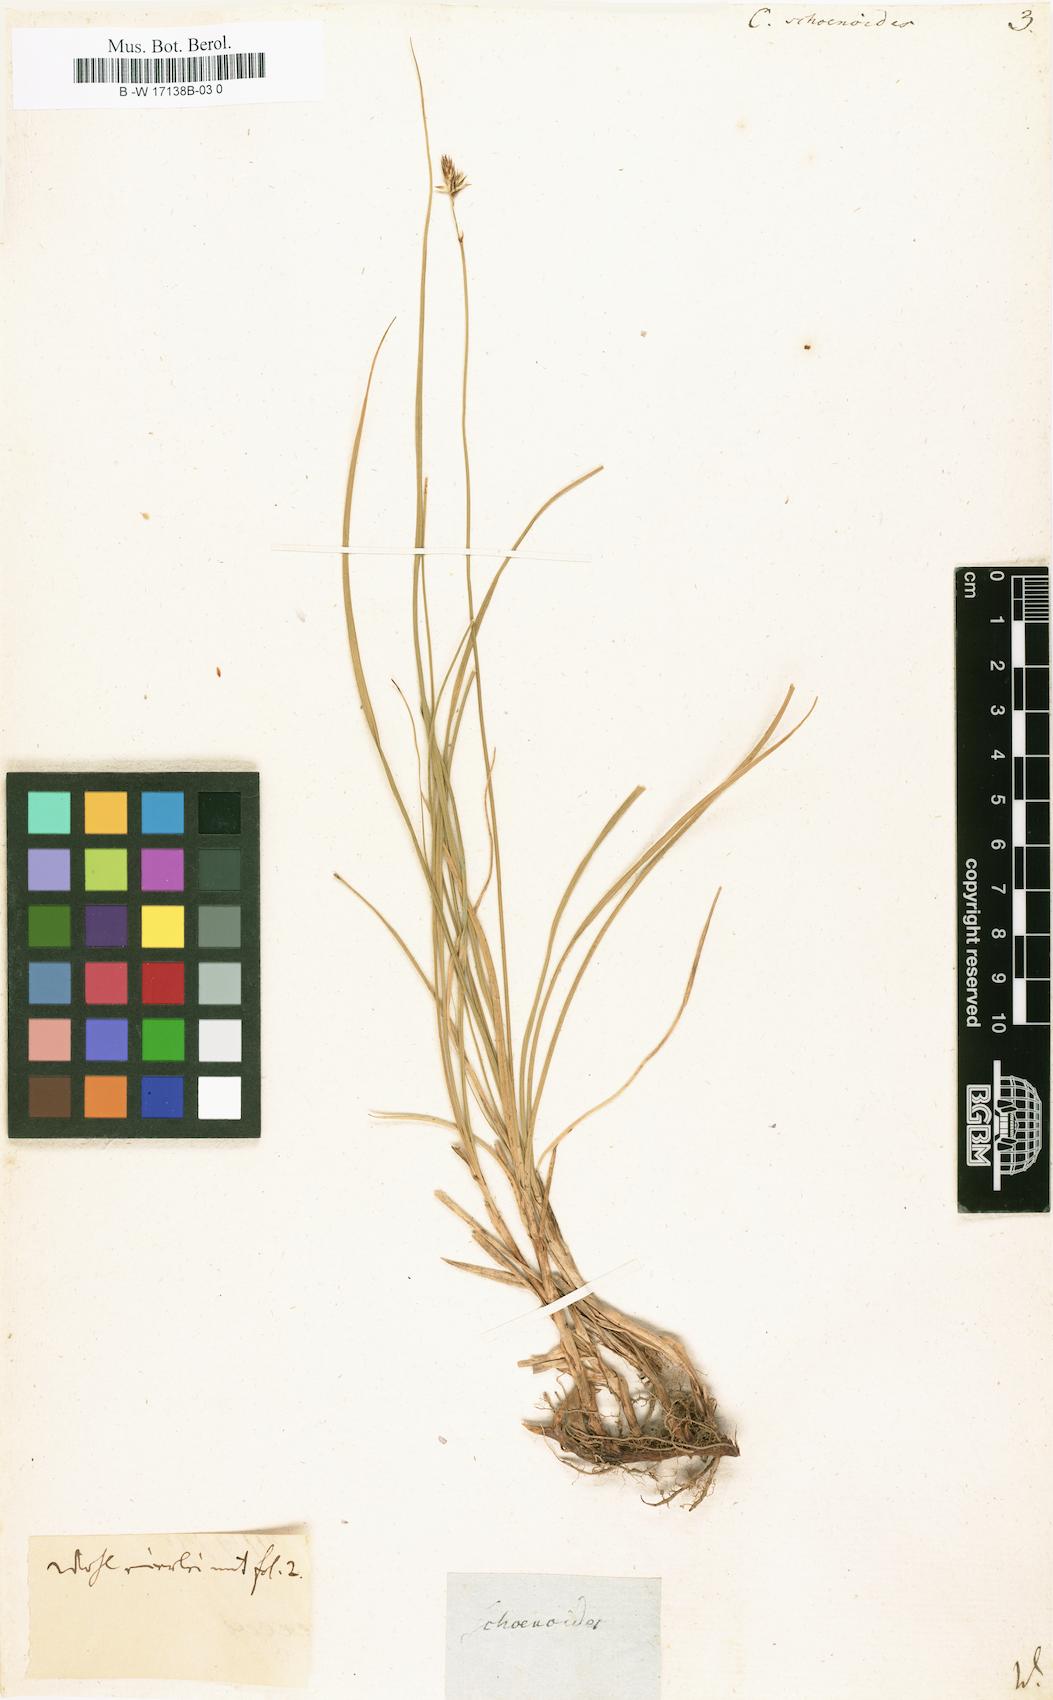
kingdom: Plantae
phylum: Tracheophyta
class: Liliopsida
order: Poales
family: Cyperaceae
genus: Carex
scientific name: Carex
